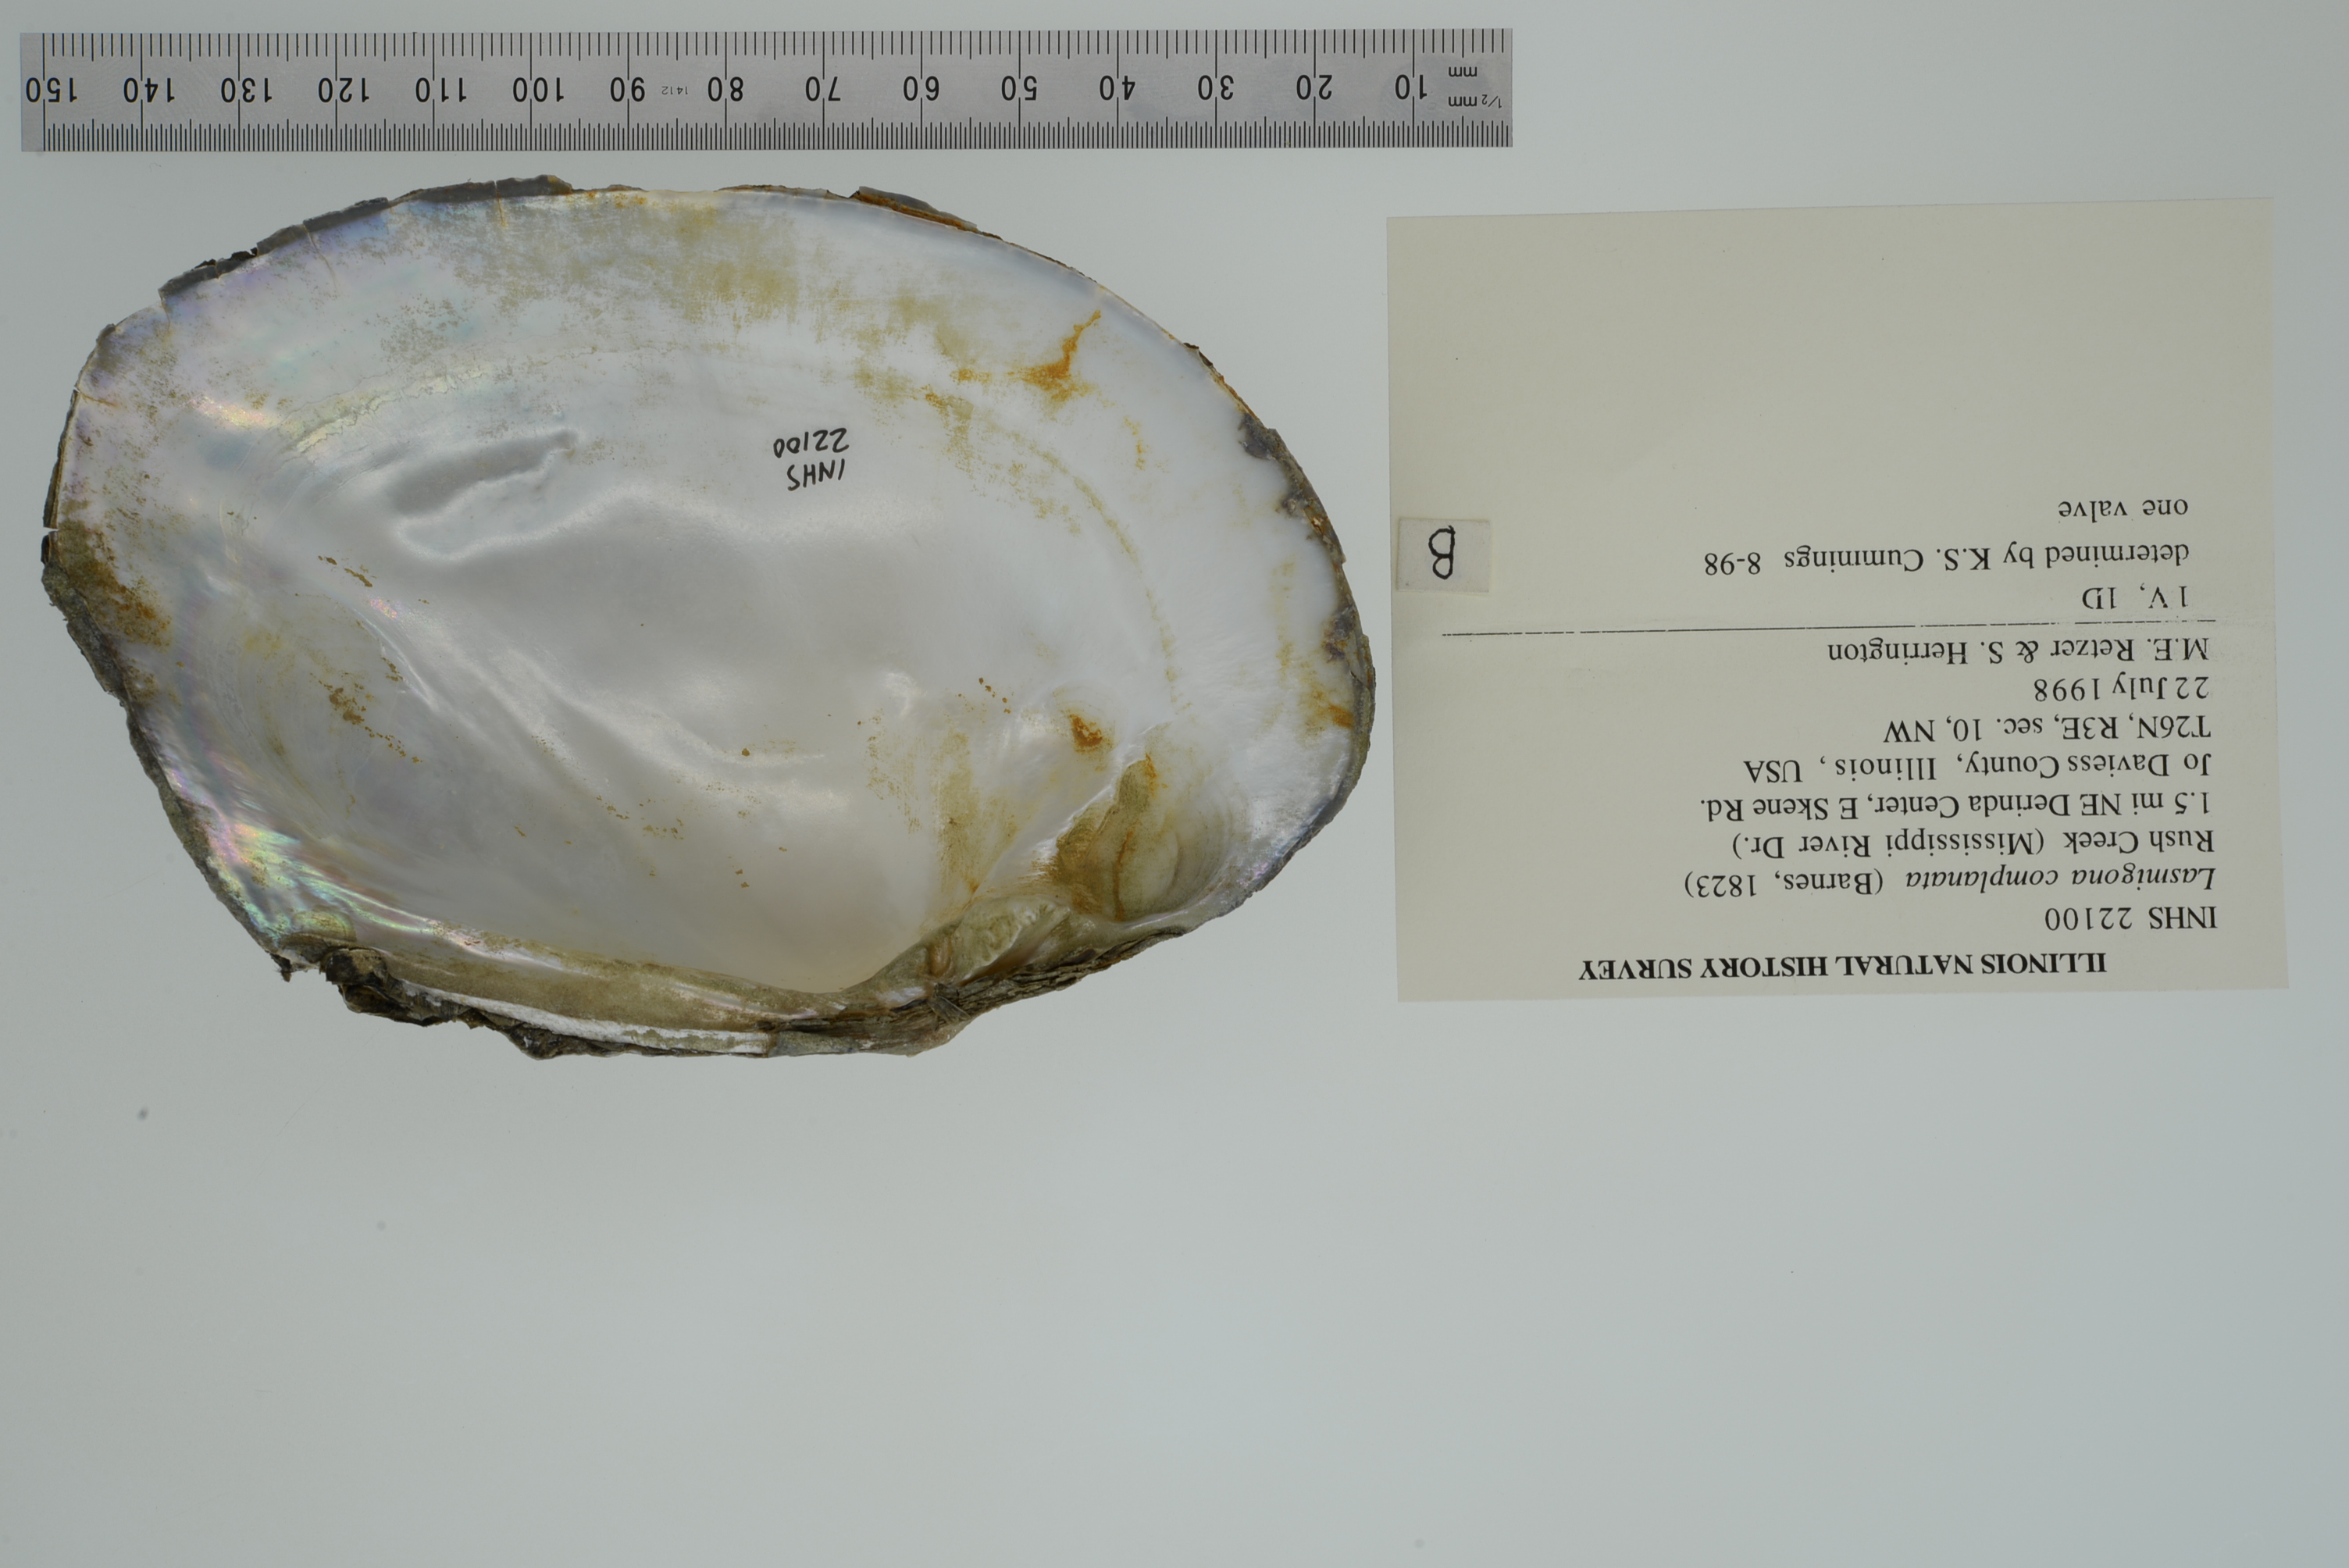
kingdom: Animalia
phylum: Mollusca
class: Bivalvia
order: Unionida
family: Unionidae
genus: Lasmigona
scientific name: Lasmigona complanata
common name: White heelsplitter
